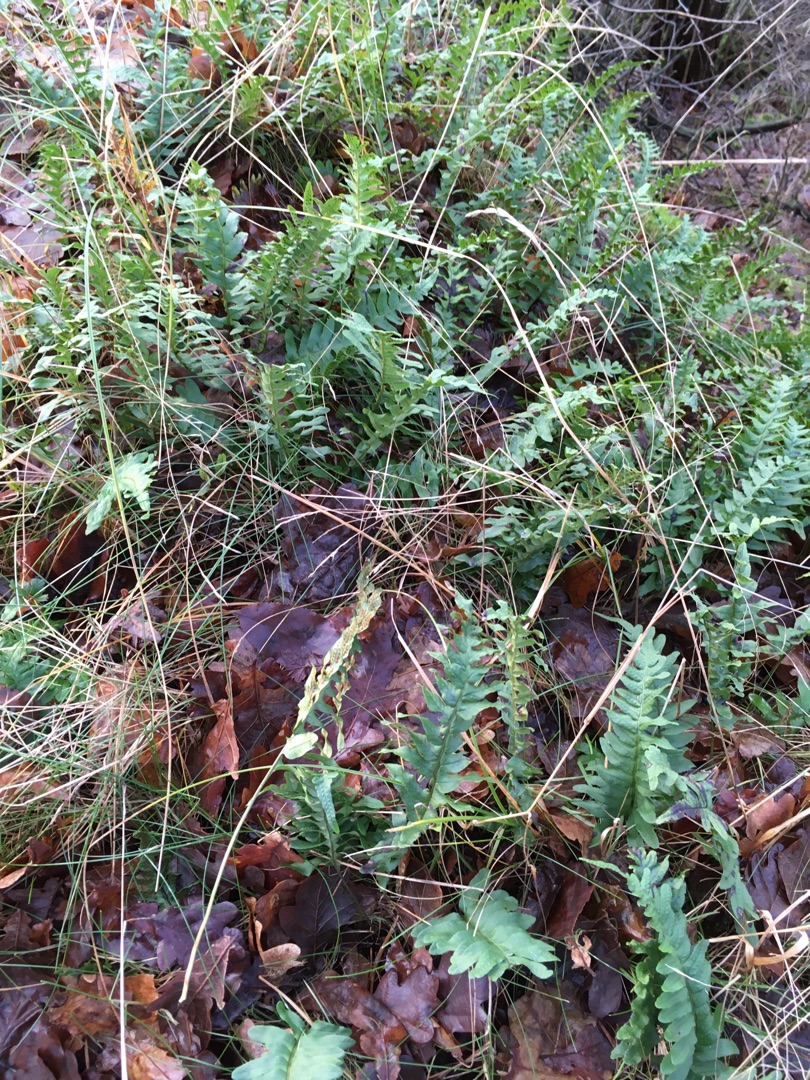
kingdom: Plantae
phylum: Tracheophyta
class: Polypodiopsida
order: Polypodiales
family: Polypodiaceae
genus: Polypodium
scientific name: Polypodium vulgare
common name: Almindelig engelsød
